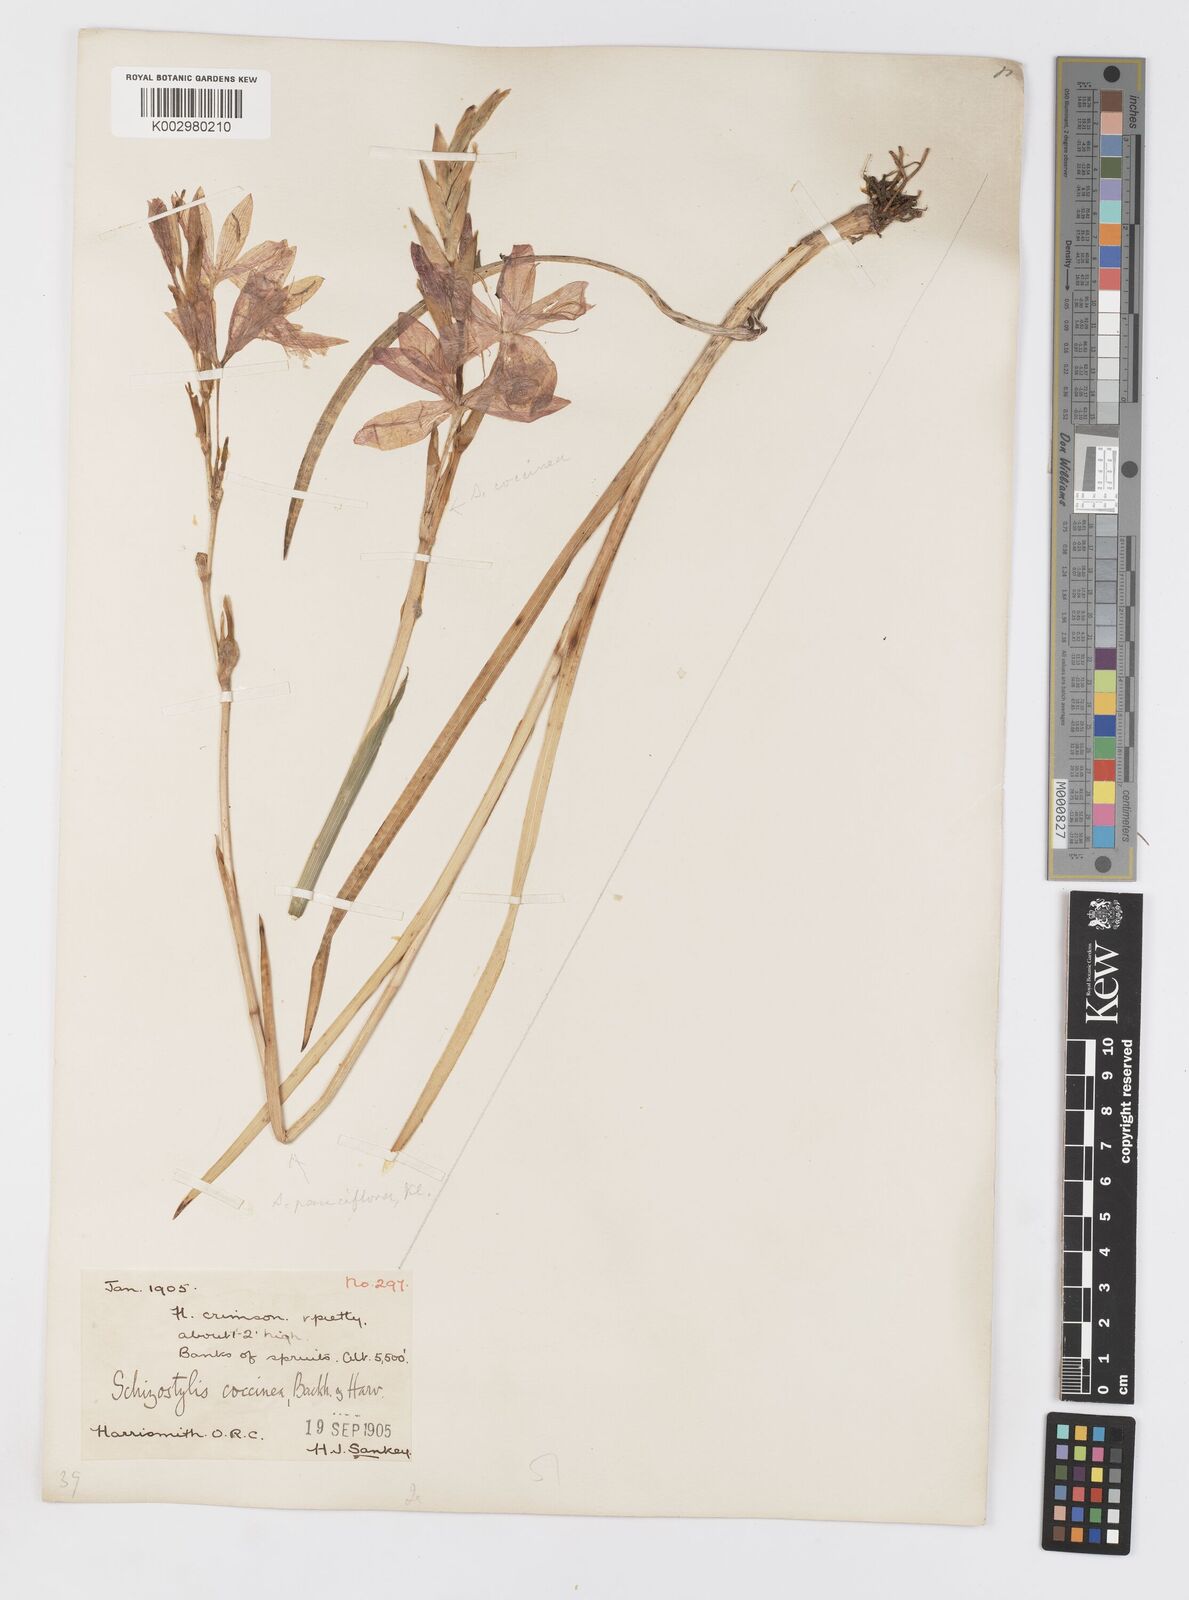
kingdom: Plantae
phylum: Tracheophyta
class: Liliopsida
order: Asparagales
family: Iridaceae
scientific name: Iridaceae
